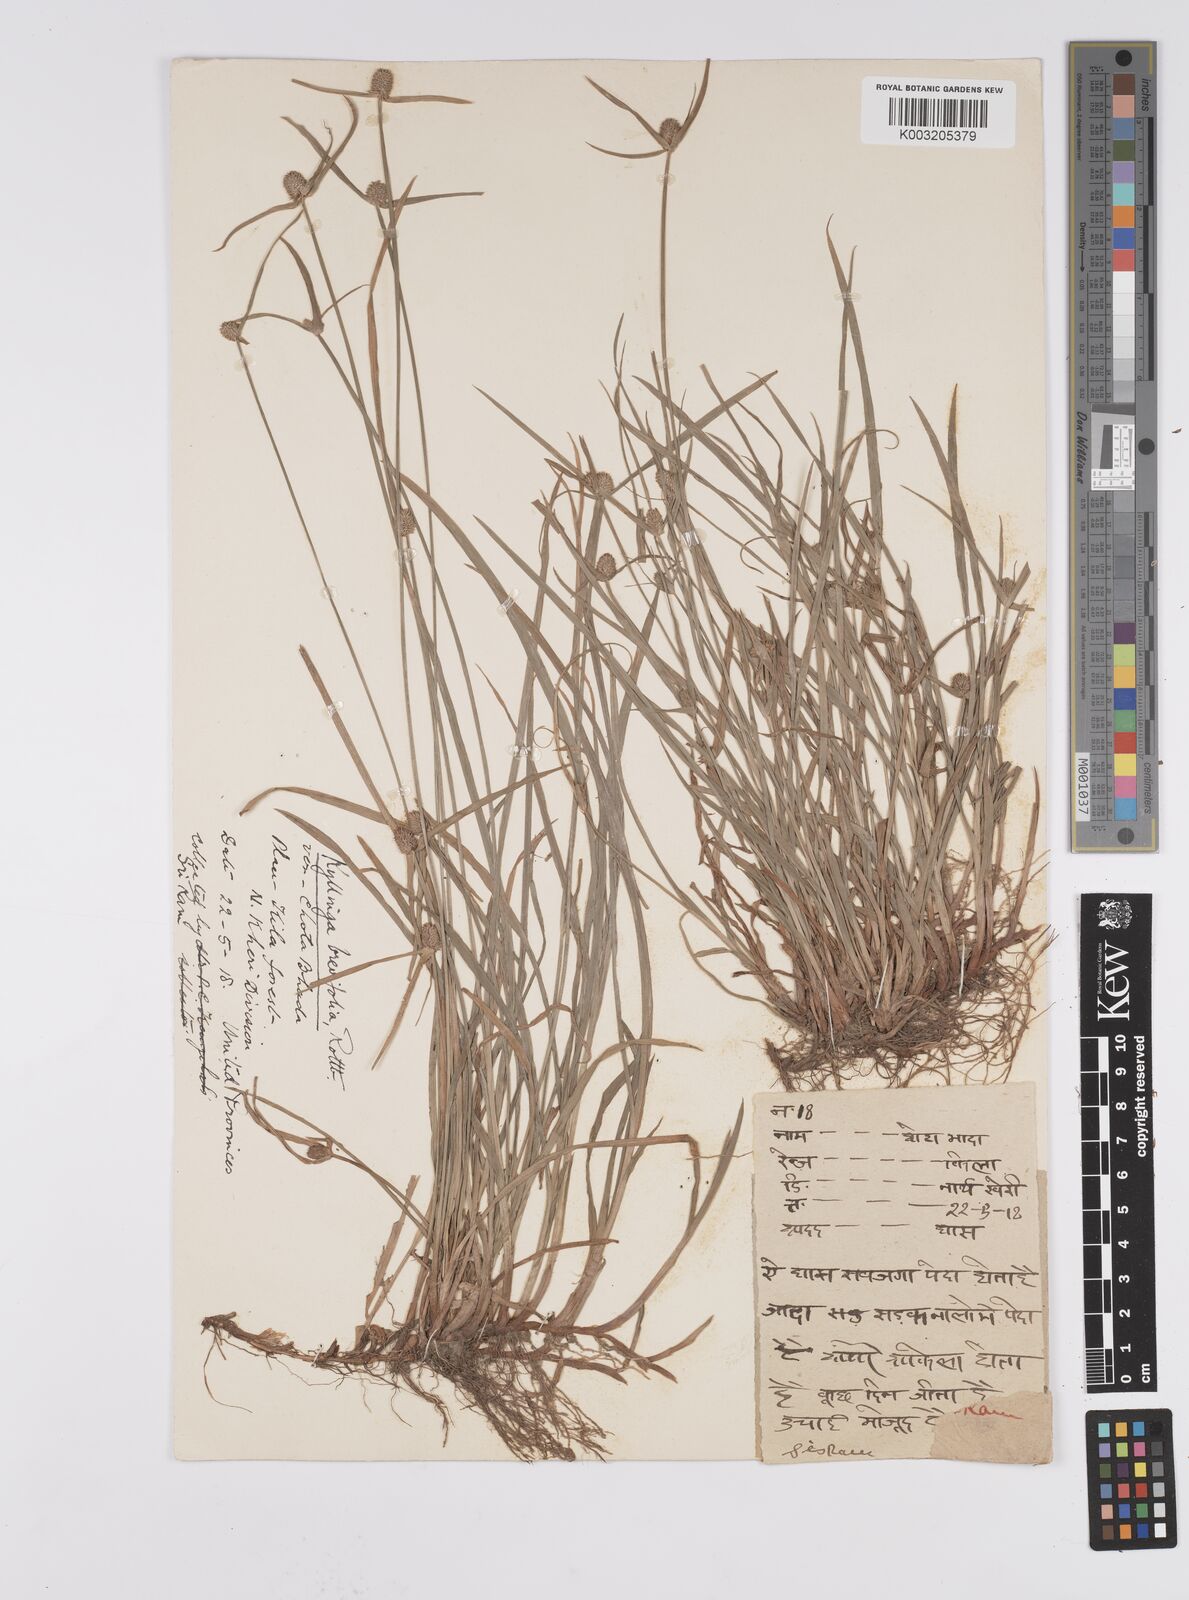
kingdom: Plantae
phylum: Tracheophyta
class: Liliopsida
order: Poales
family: Cyperaceae
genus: Cyperus
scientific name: Cyperus brevifolius
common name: Globe kyllinga
